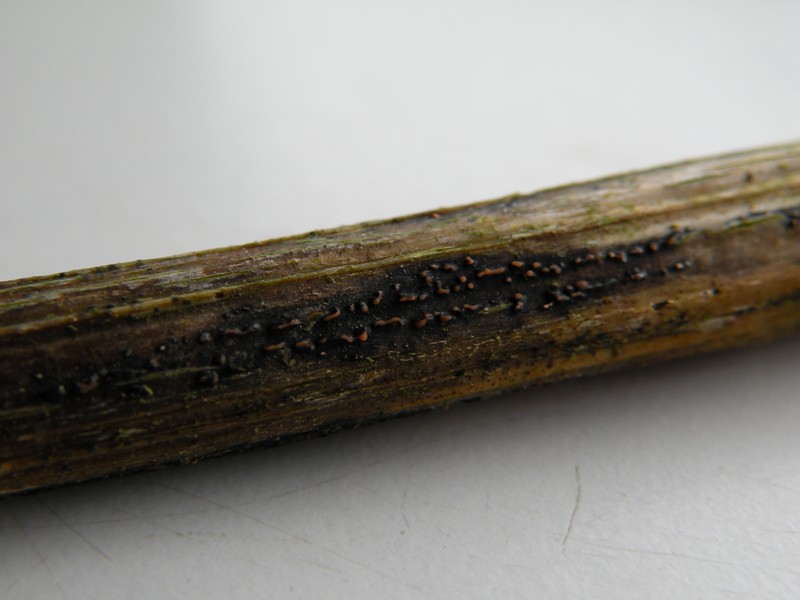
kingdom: Fungi
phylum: Ascomycota
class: Sordariomycetes
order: Diaporthales
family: Diaporthaceae
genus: Diaporthopsis
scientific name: Diaporthopsis urticae
